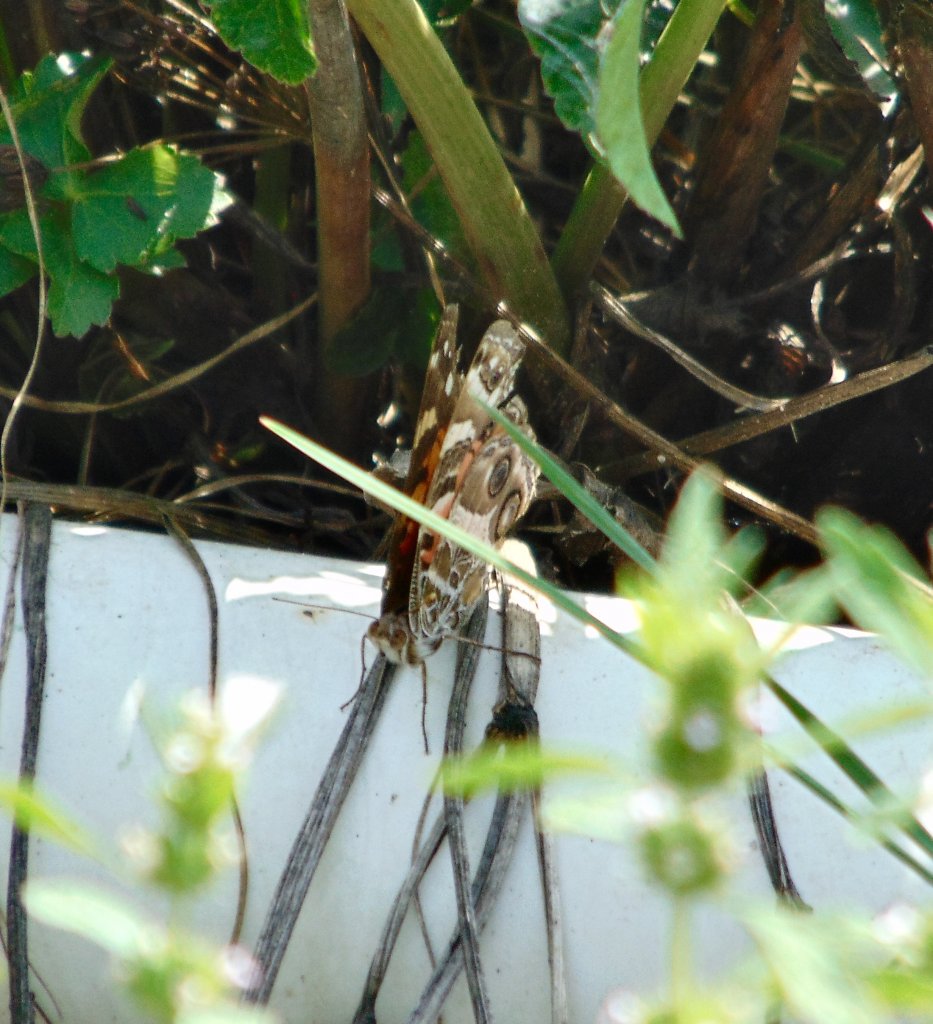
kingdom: Animalia
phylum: Arthropoda
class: Insecta
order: Lepidoptera
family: Nymphalidae
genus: Vanessa
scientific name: Vanessa virginiensis
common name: American Lady
